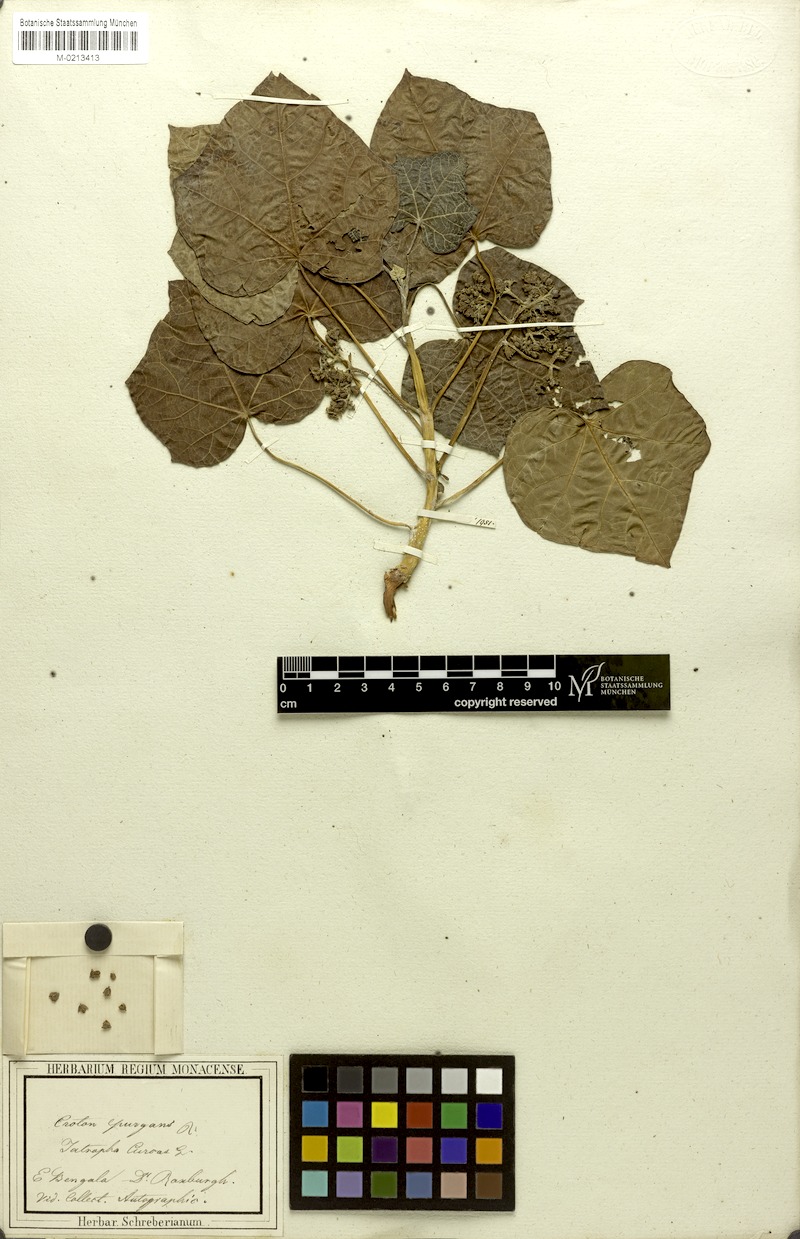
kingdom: Plantae
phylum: Tracheophyta
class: Magnoliopsida
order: Malpighiales
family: Euphorbiaceae
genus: Jatropha
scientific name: Jatropha curcas
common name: Barbados nut
